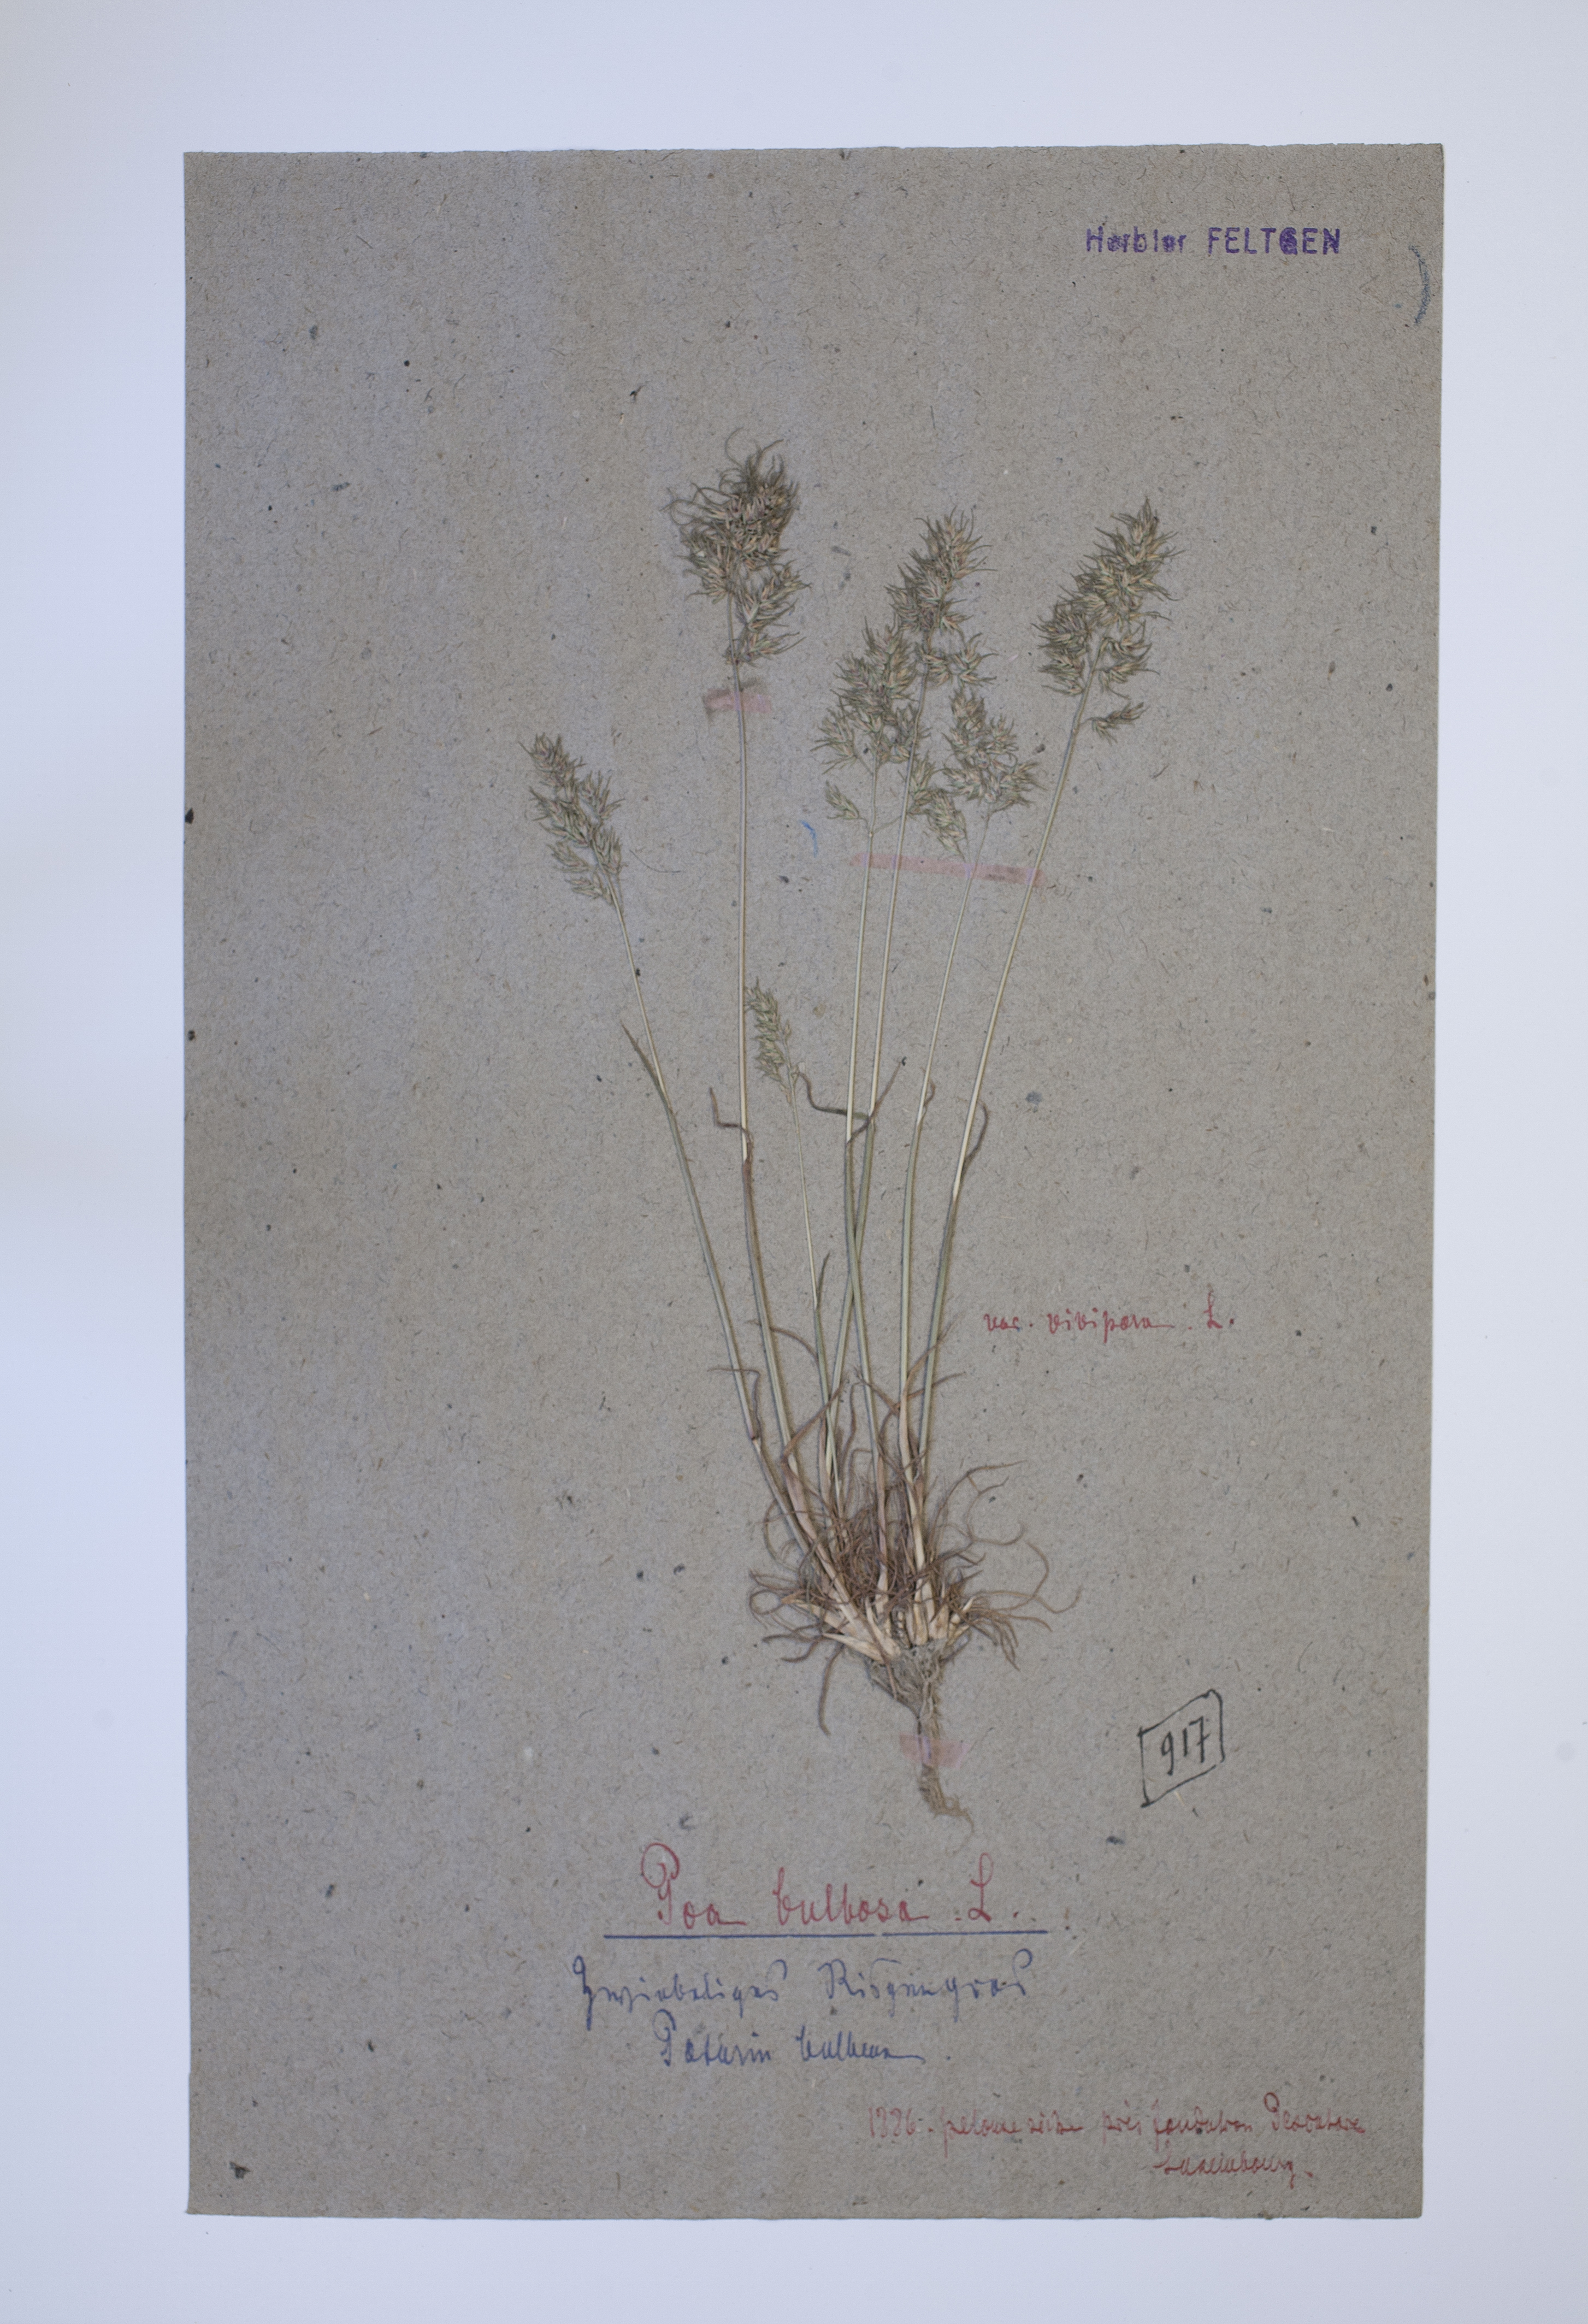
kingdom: Plantae
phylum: Tracheophyta
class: Liliopsida
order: Poales
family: Poaceae
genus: Poa
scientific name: Poa bulbosa
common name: Bulbous bluegrass
